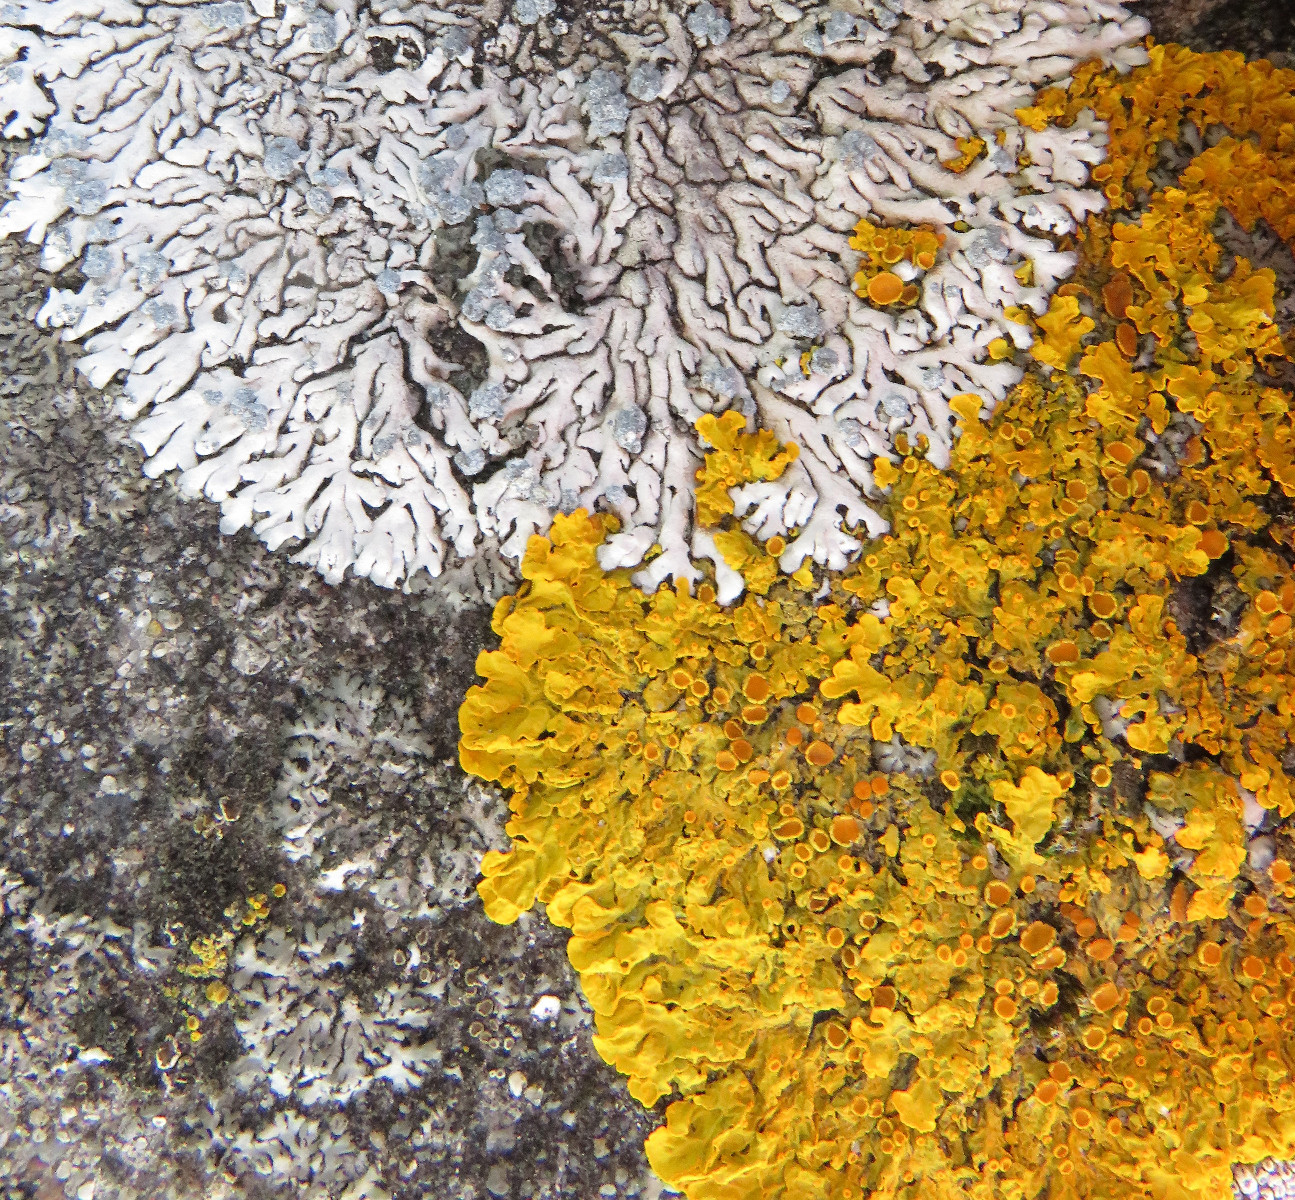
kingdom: Fungi
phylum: Ascomycota
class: Lecanoromycetes
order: Teloschistales
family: Teloschistaceae
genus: Xanthoria
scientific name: Xanthoria parietina
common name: almindelig væggelav
